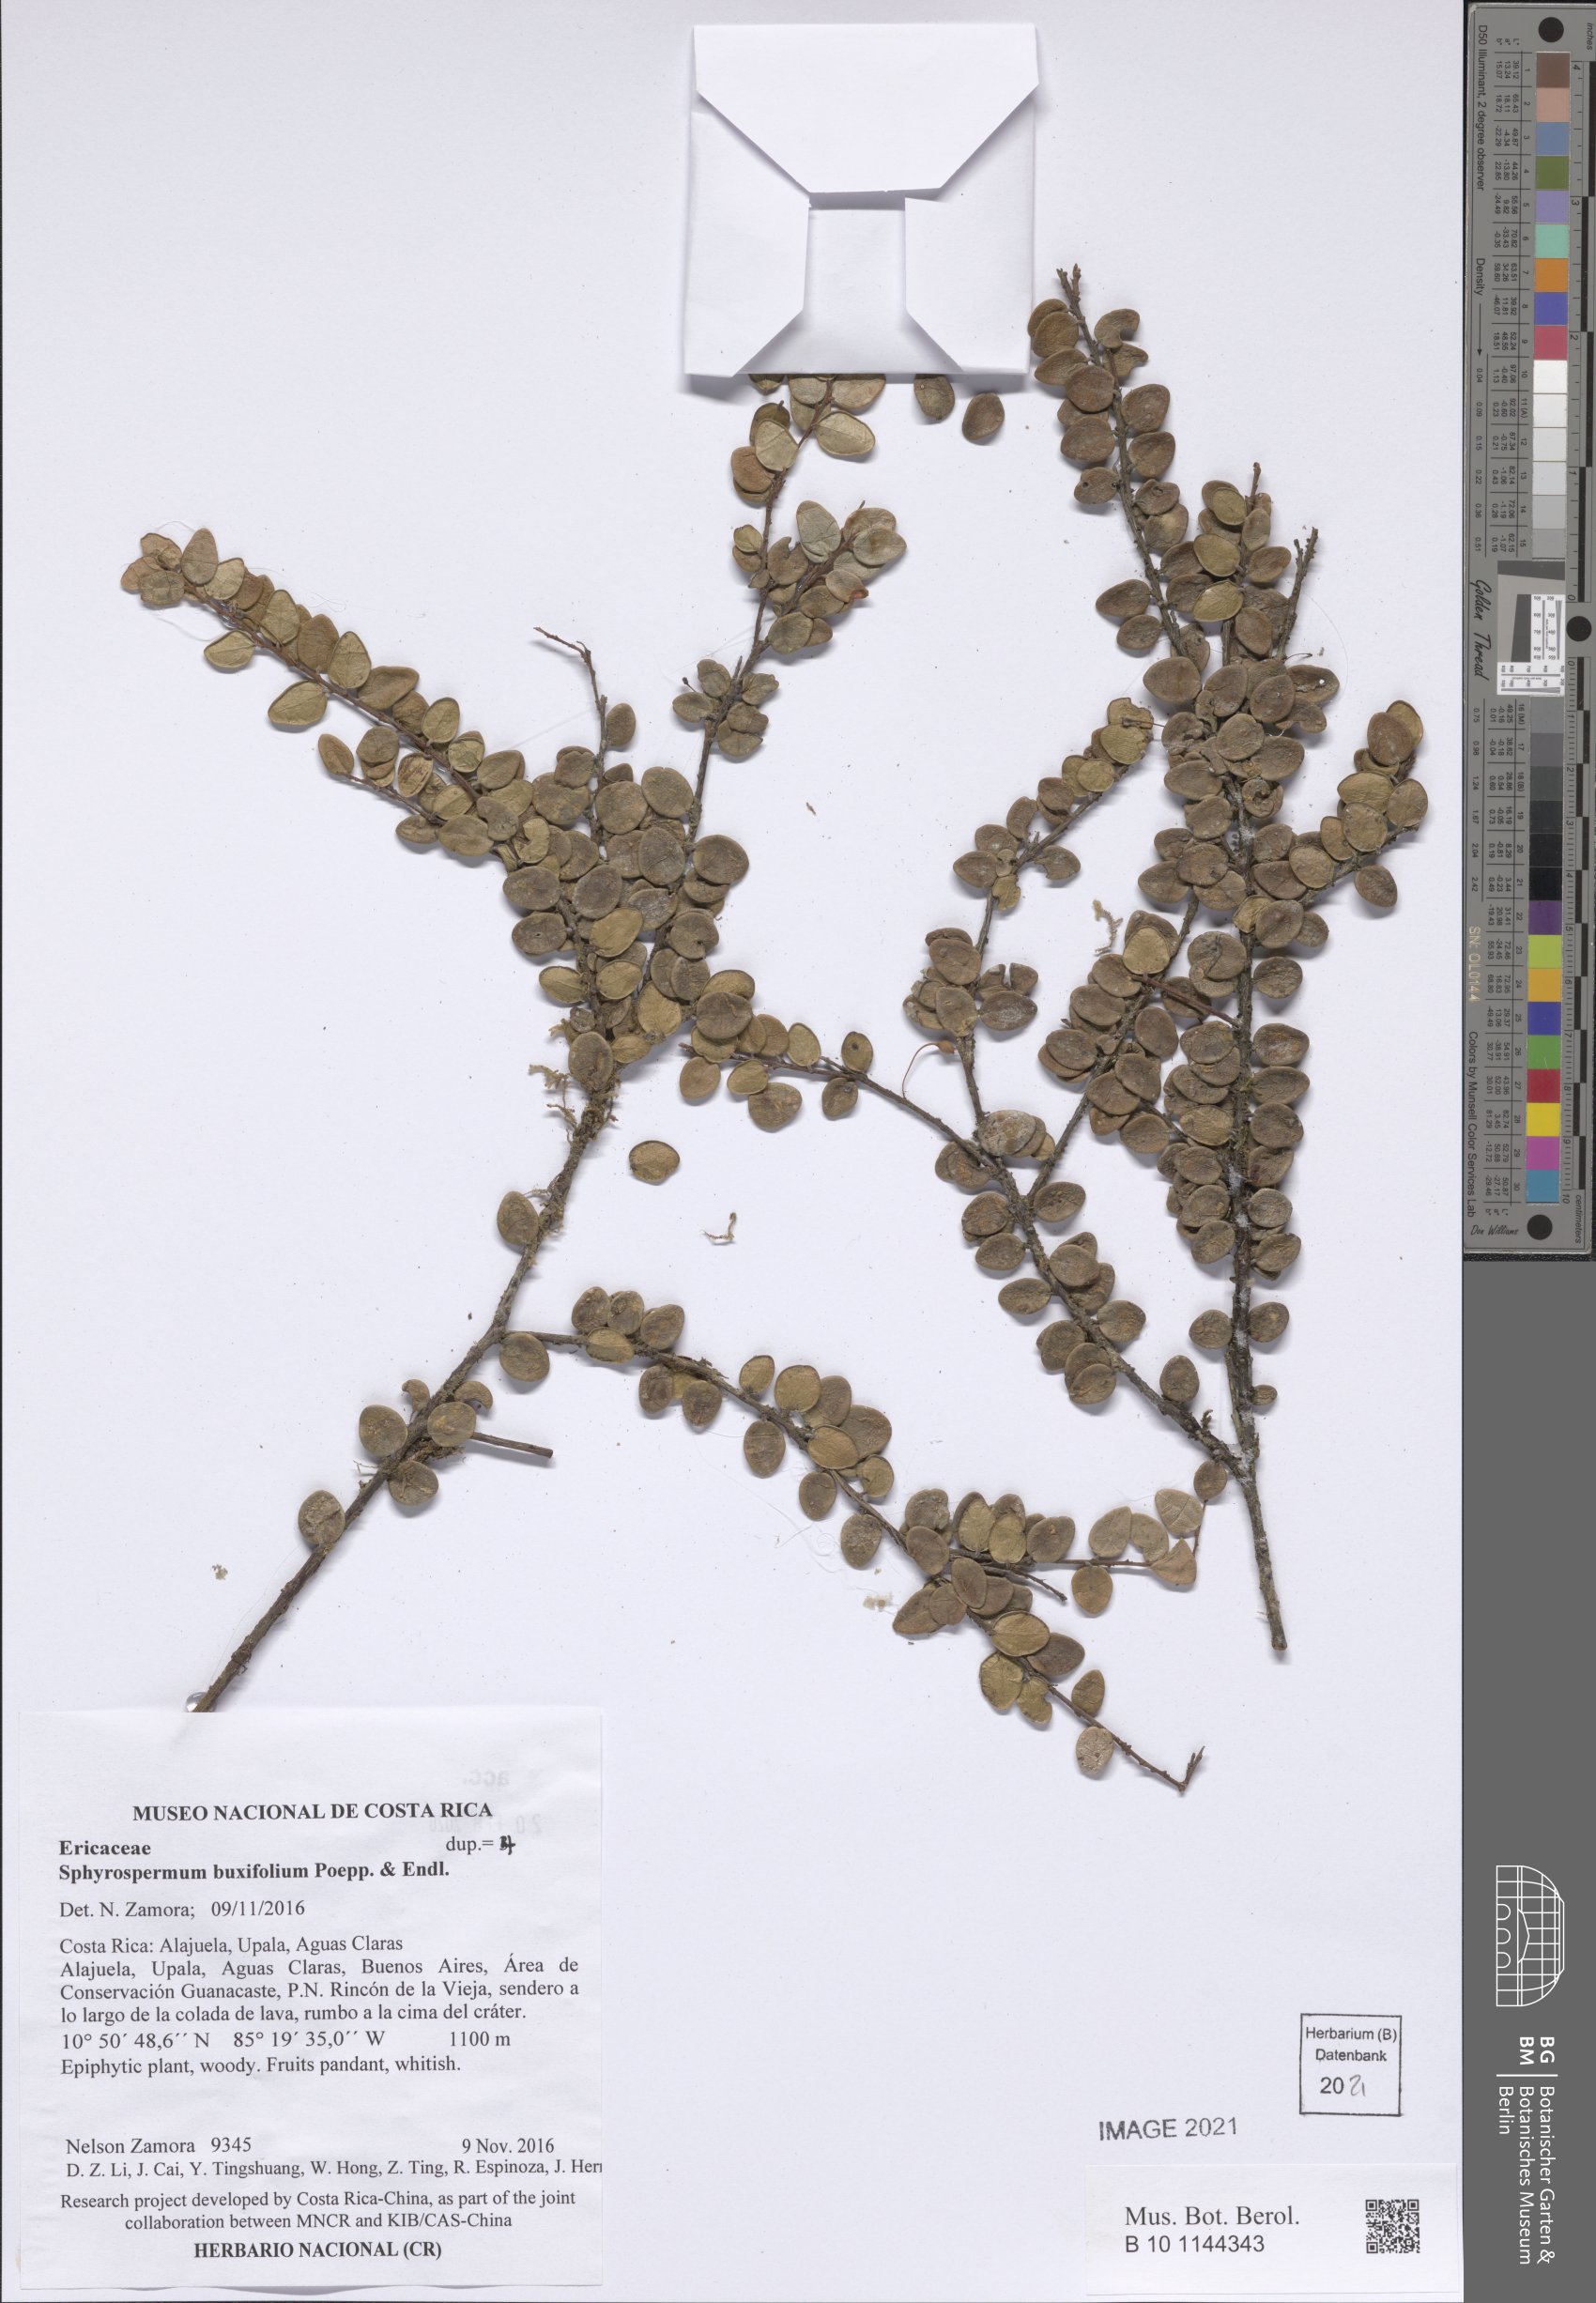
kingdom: Plantae
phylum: Tracheophyta
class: Magnoliopsida
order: Ericales
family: Ericaceae
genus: Sphyrospermum
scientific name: Sphyrospermum buxifolium
